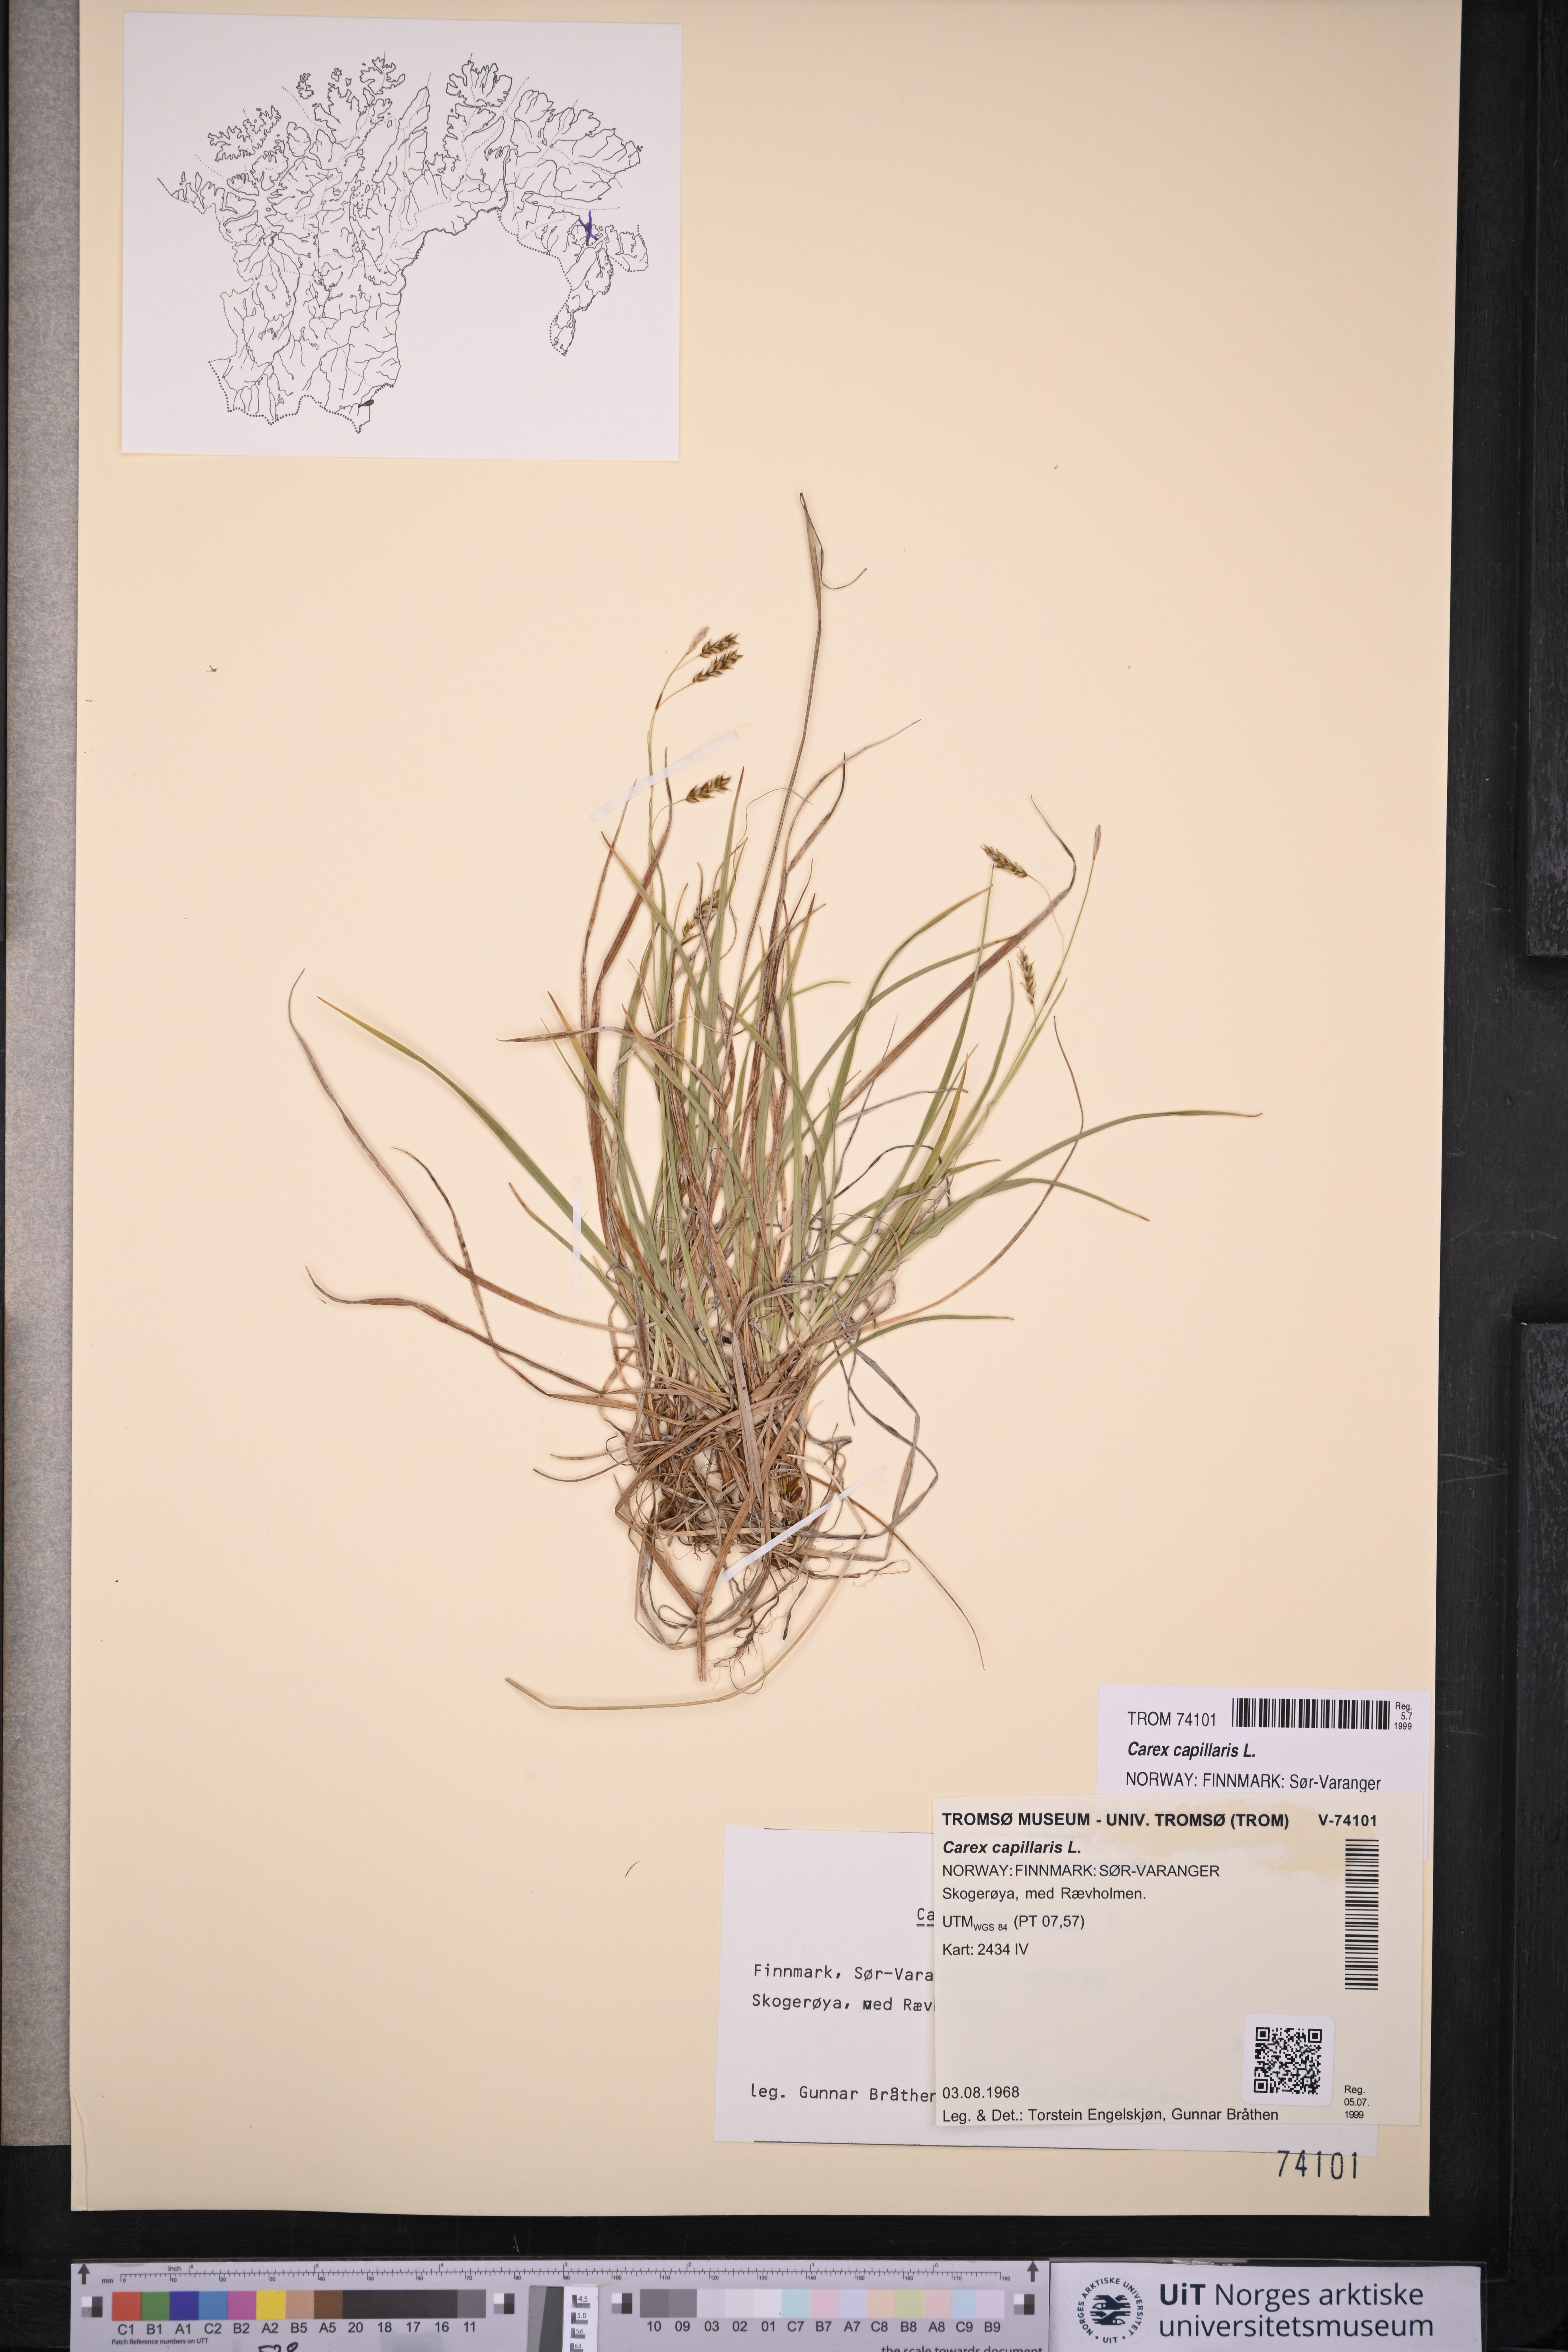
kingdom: Plantae
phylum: Tracheophyta
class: Liliopsida
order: Poales
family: Cyperaceae
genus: Carex
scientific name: Carex capillaris
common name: Hair sedge
